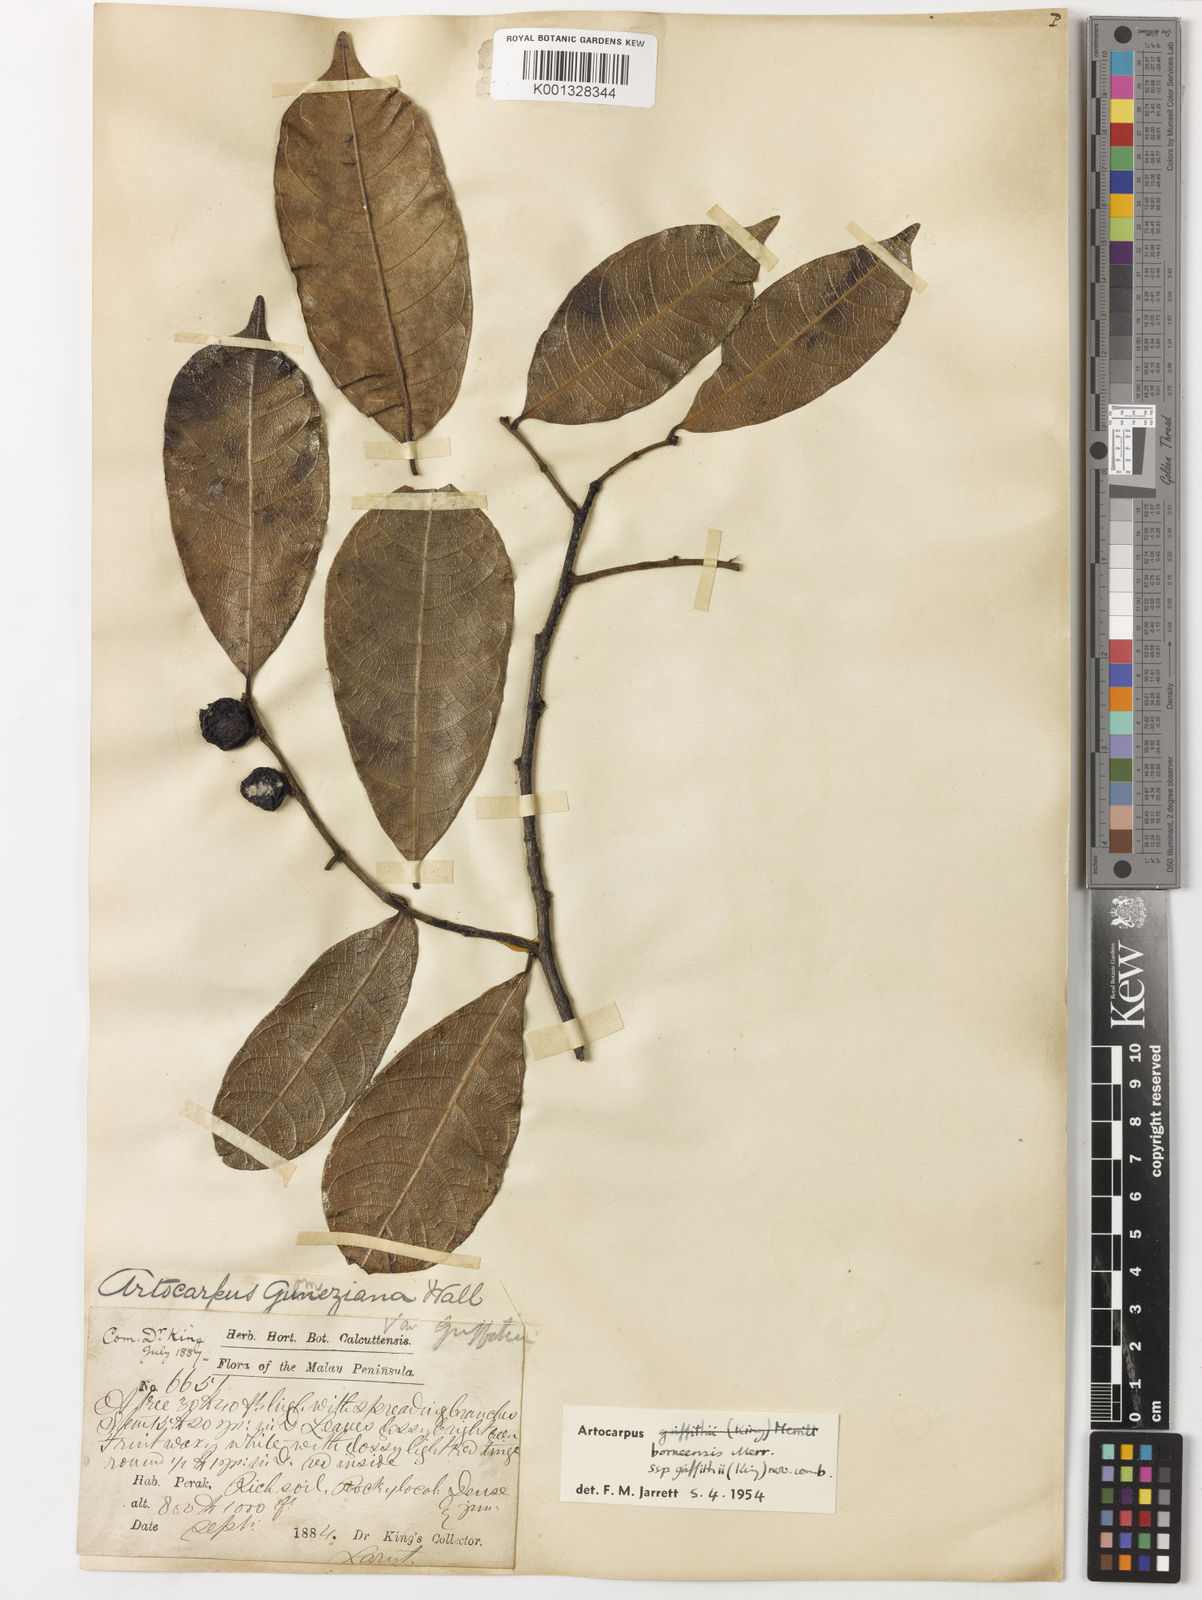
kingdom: Plantae
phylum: Tracheophyta
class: Magnoliopsida
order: Rosales
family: Moraceae
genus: Artocarpus
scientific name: Artocarpus lamellosus
